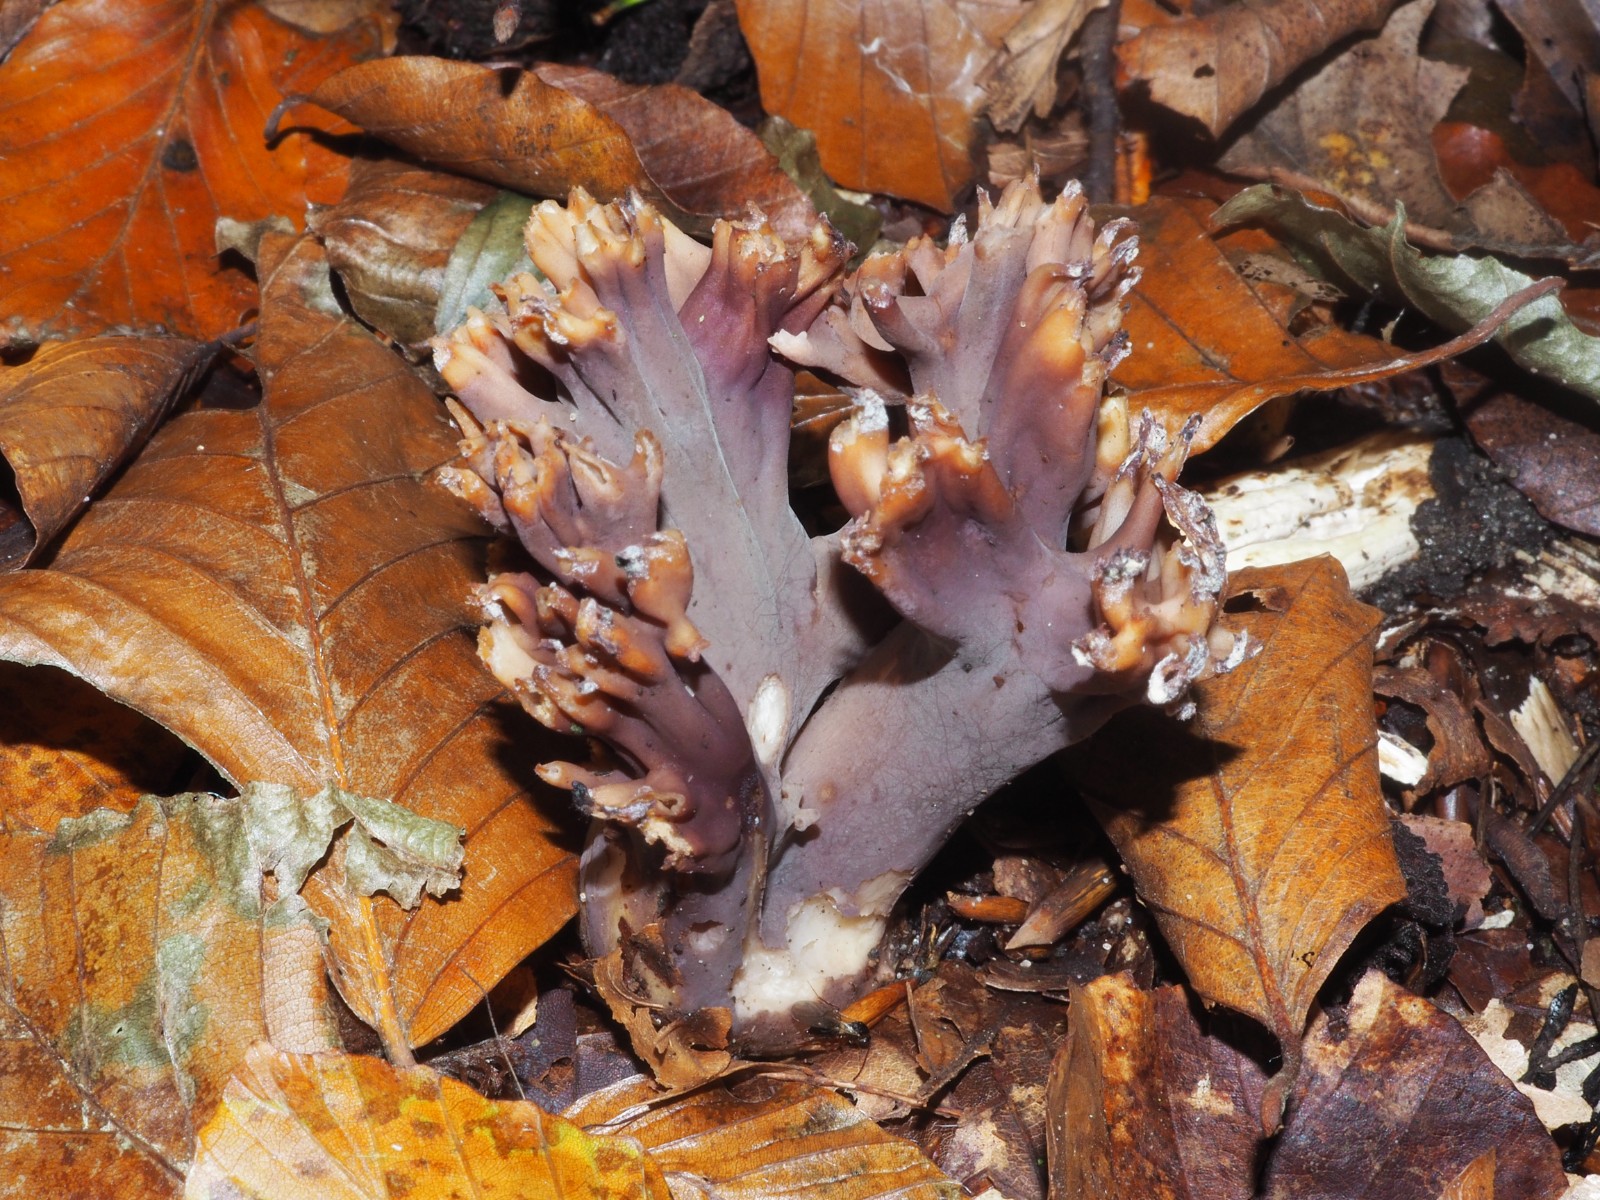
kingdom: Fungi
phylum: Basidiomycota
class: Agaricomycetes
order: Gomphales
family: Gomphaceae
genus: Ramaria
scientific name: Ramaria fumigata
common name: violet koralsvamp
